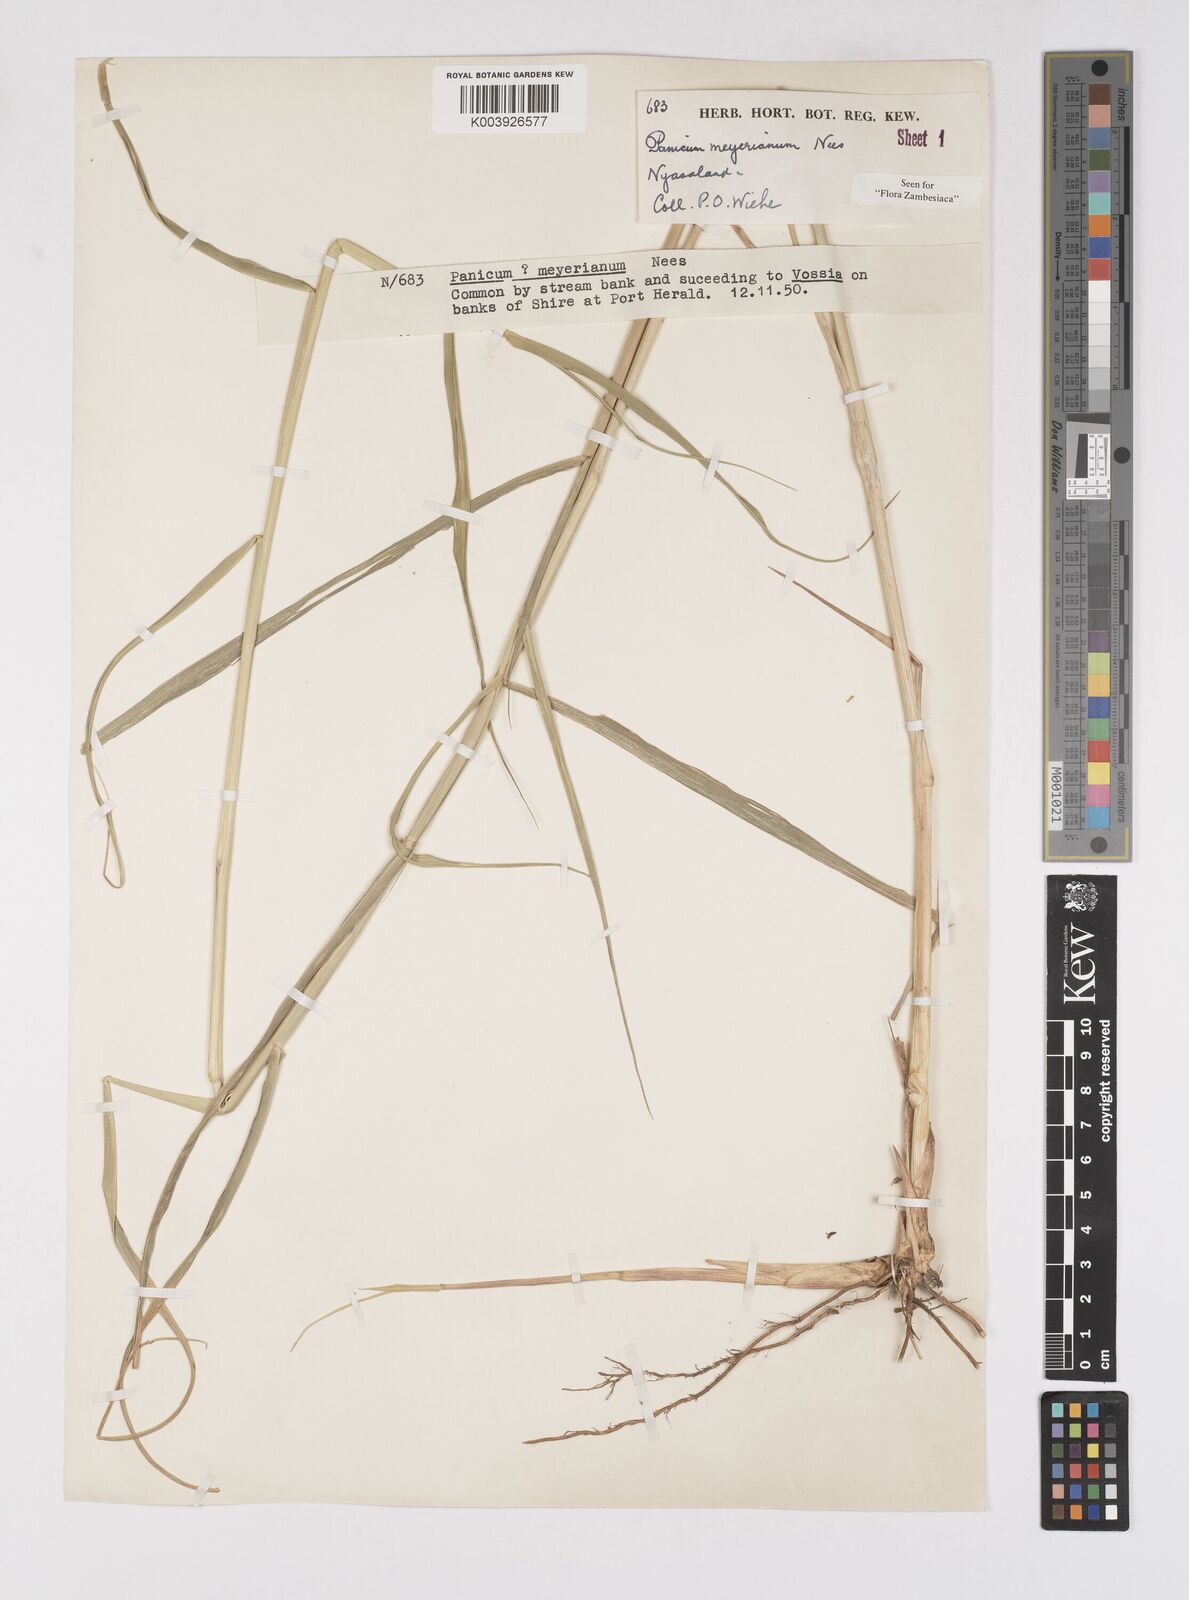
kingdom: Plantae
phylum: Tracheophyta
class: Liliopsida
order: Poales
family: Poaceae
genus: Eriochloa
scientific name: Eriochloa meyeriana
